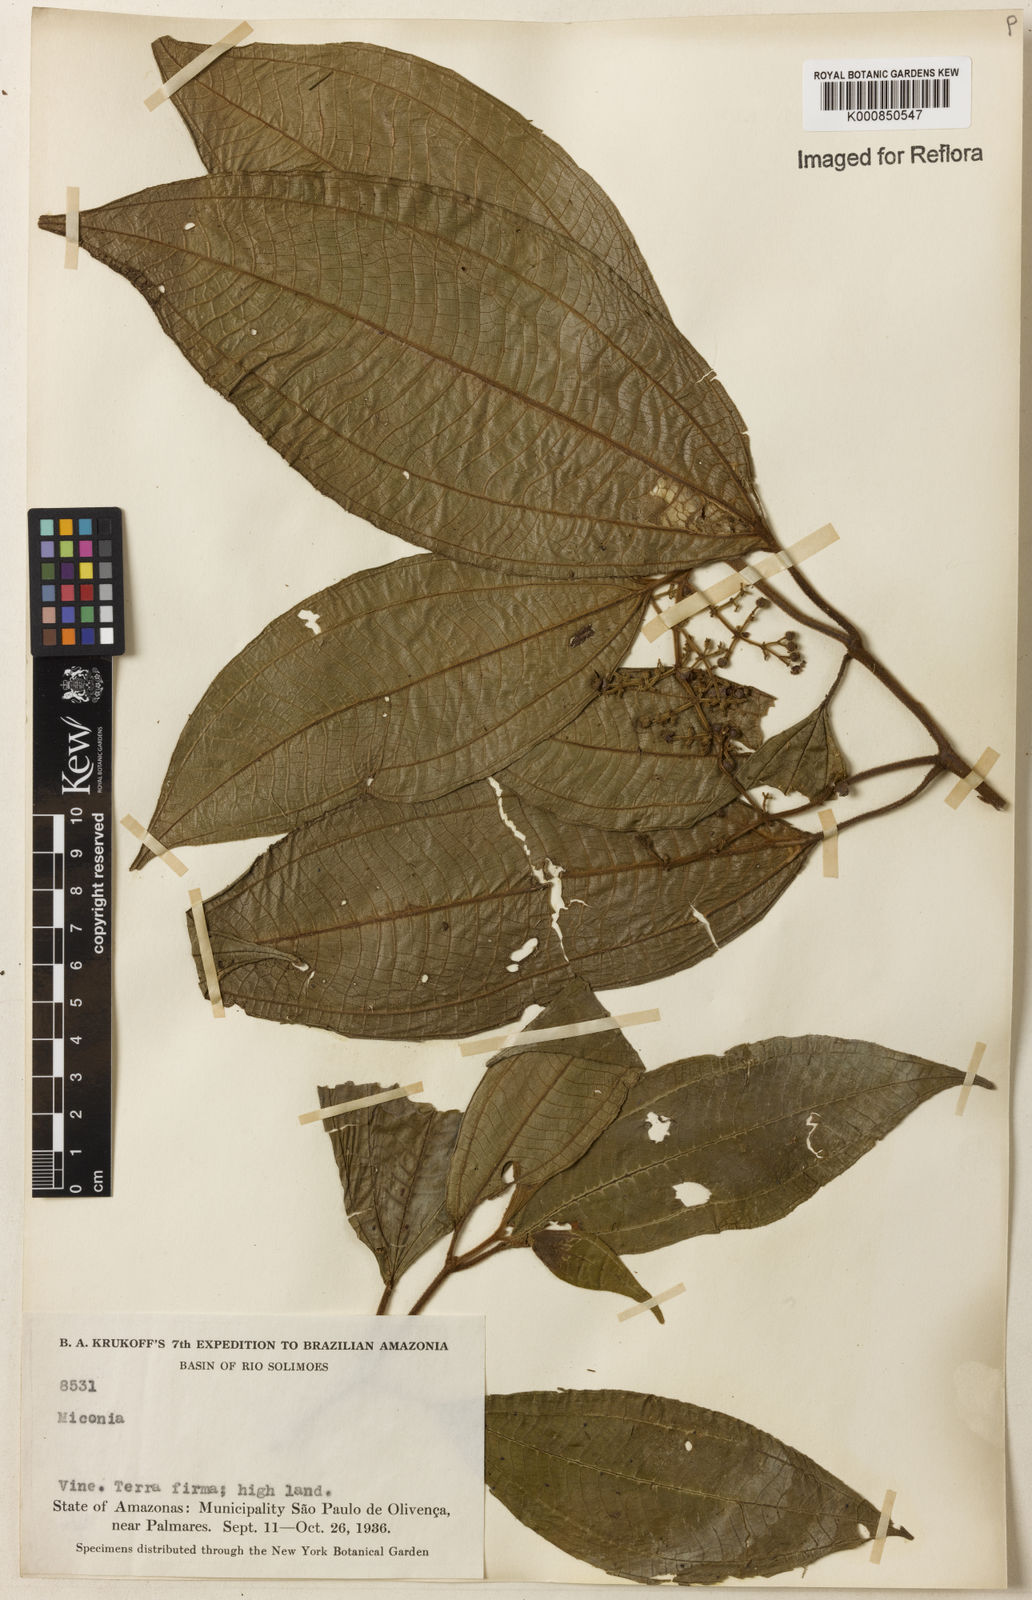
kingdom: Plantae
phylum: Tracheophyta
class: Magnoliopsida
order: Myrtales
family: Melastomataceae
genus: Miconia
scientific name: Miconia
